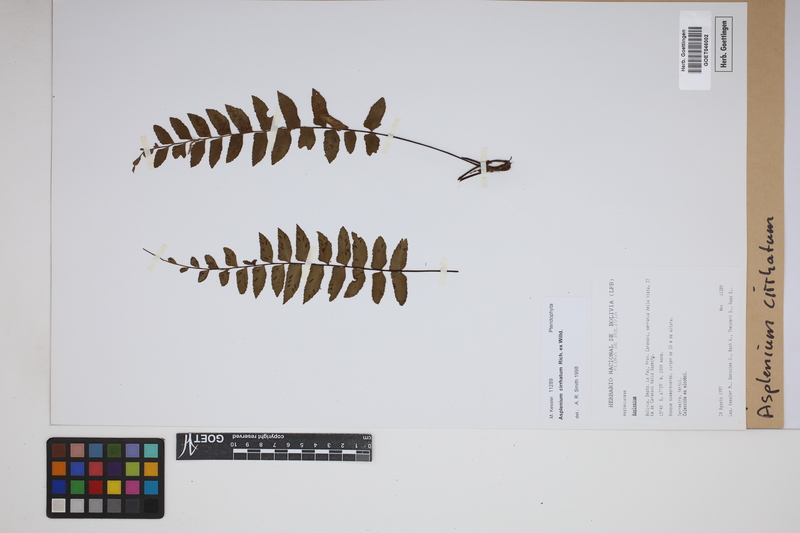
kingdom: Plantae
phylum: Tracheophyta
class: Polypodiopsida
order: Polypodiales
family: Aspleniaceae
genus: Asplenium
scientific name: Asplenium cirrhatum
